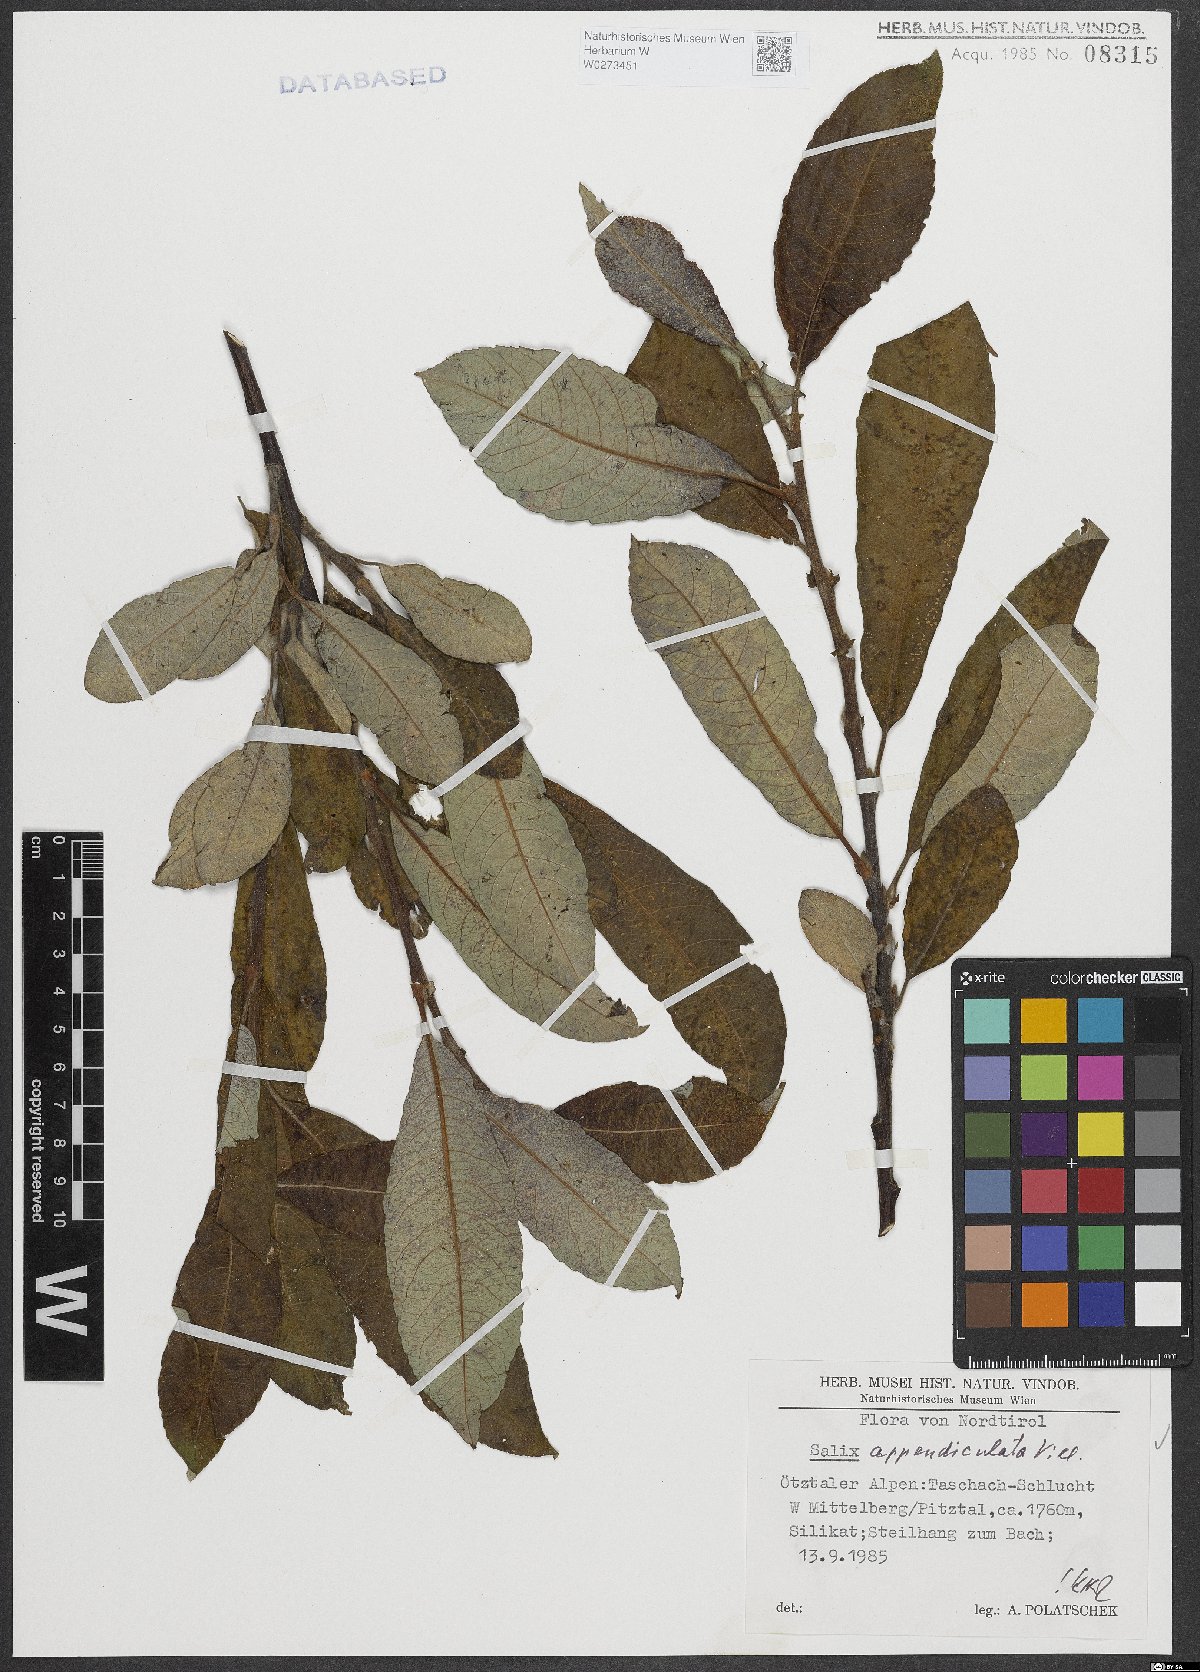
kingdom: Plantae
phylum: Tracheophyta
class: Magnoliopsida
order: Malpighiales
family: Salicaceae
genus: Salix
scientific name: Salix appendiculata
